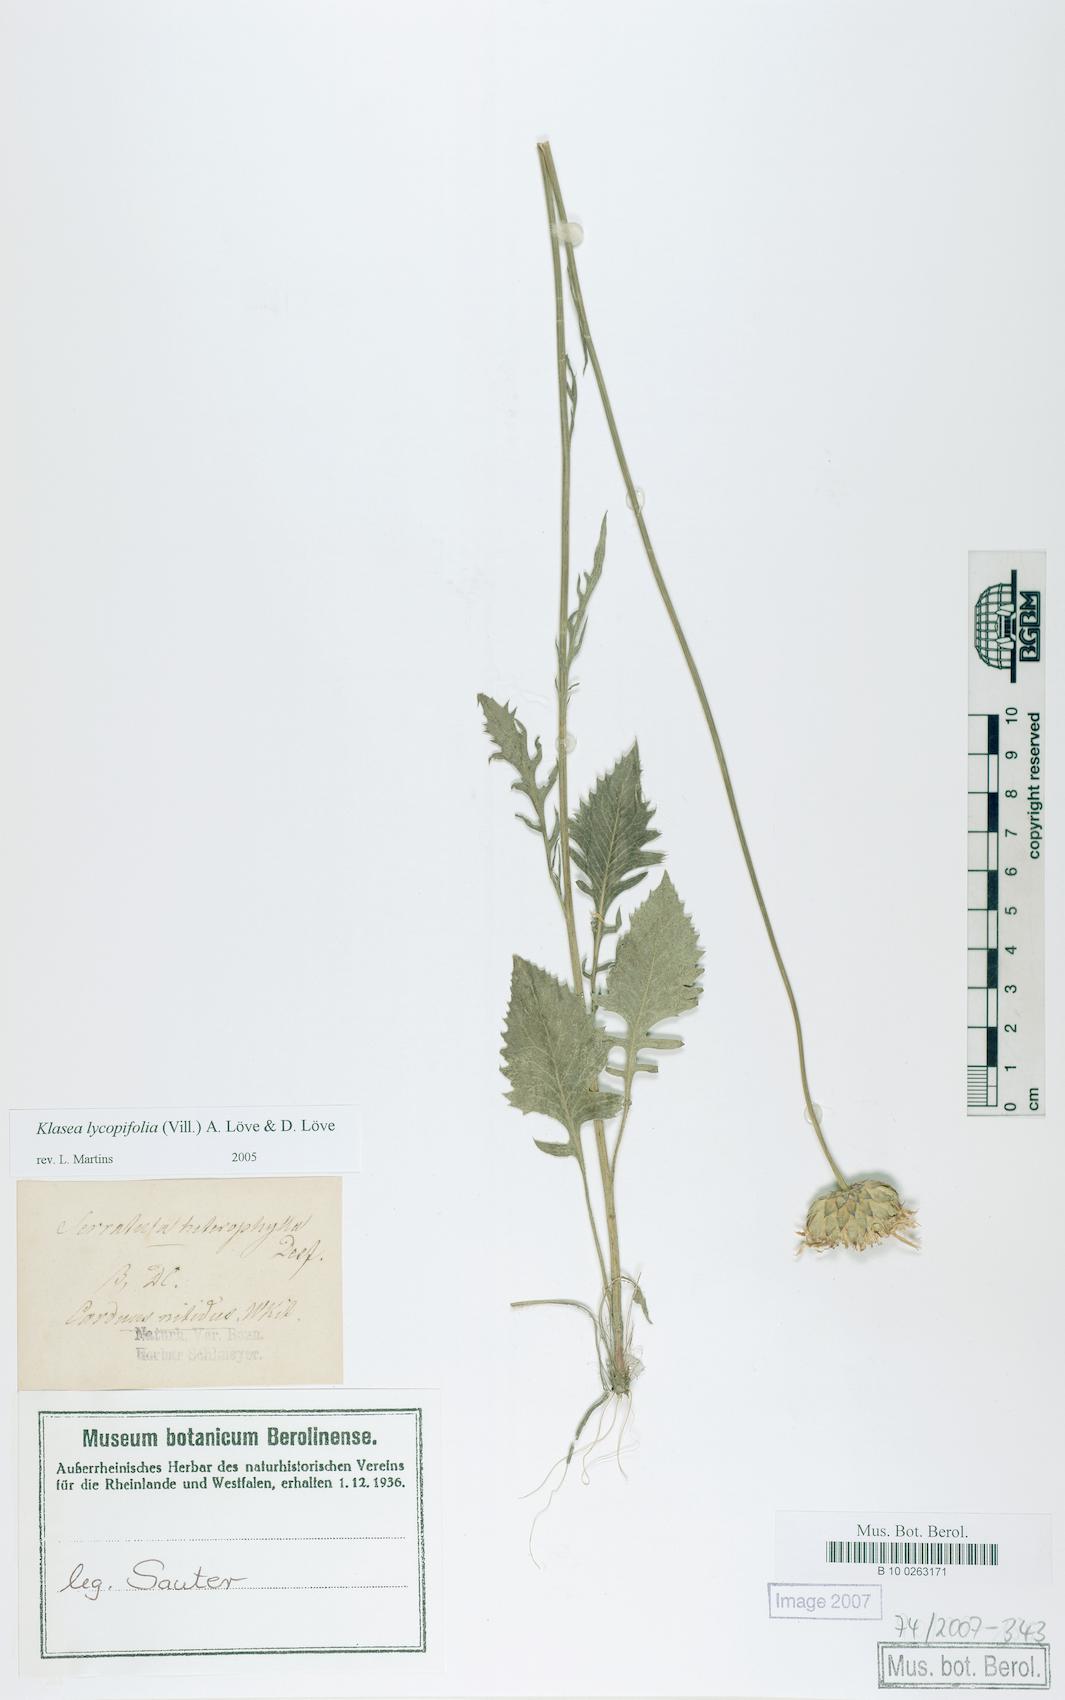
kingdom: Plantae
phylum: Tracheophyta
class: Magnoliopsida
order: Asterales
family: Asteraceae
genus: Klasea
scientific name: Klasea lycopifolia
